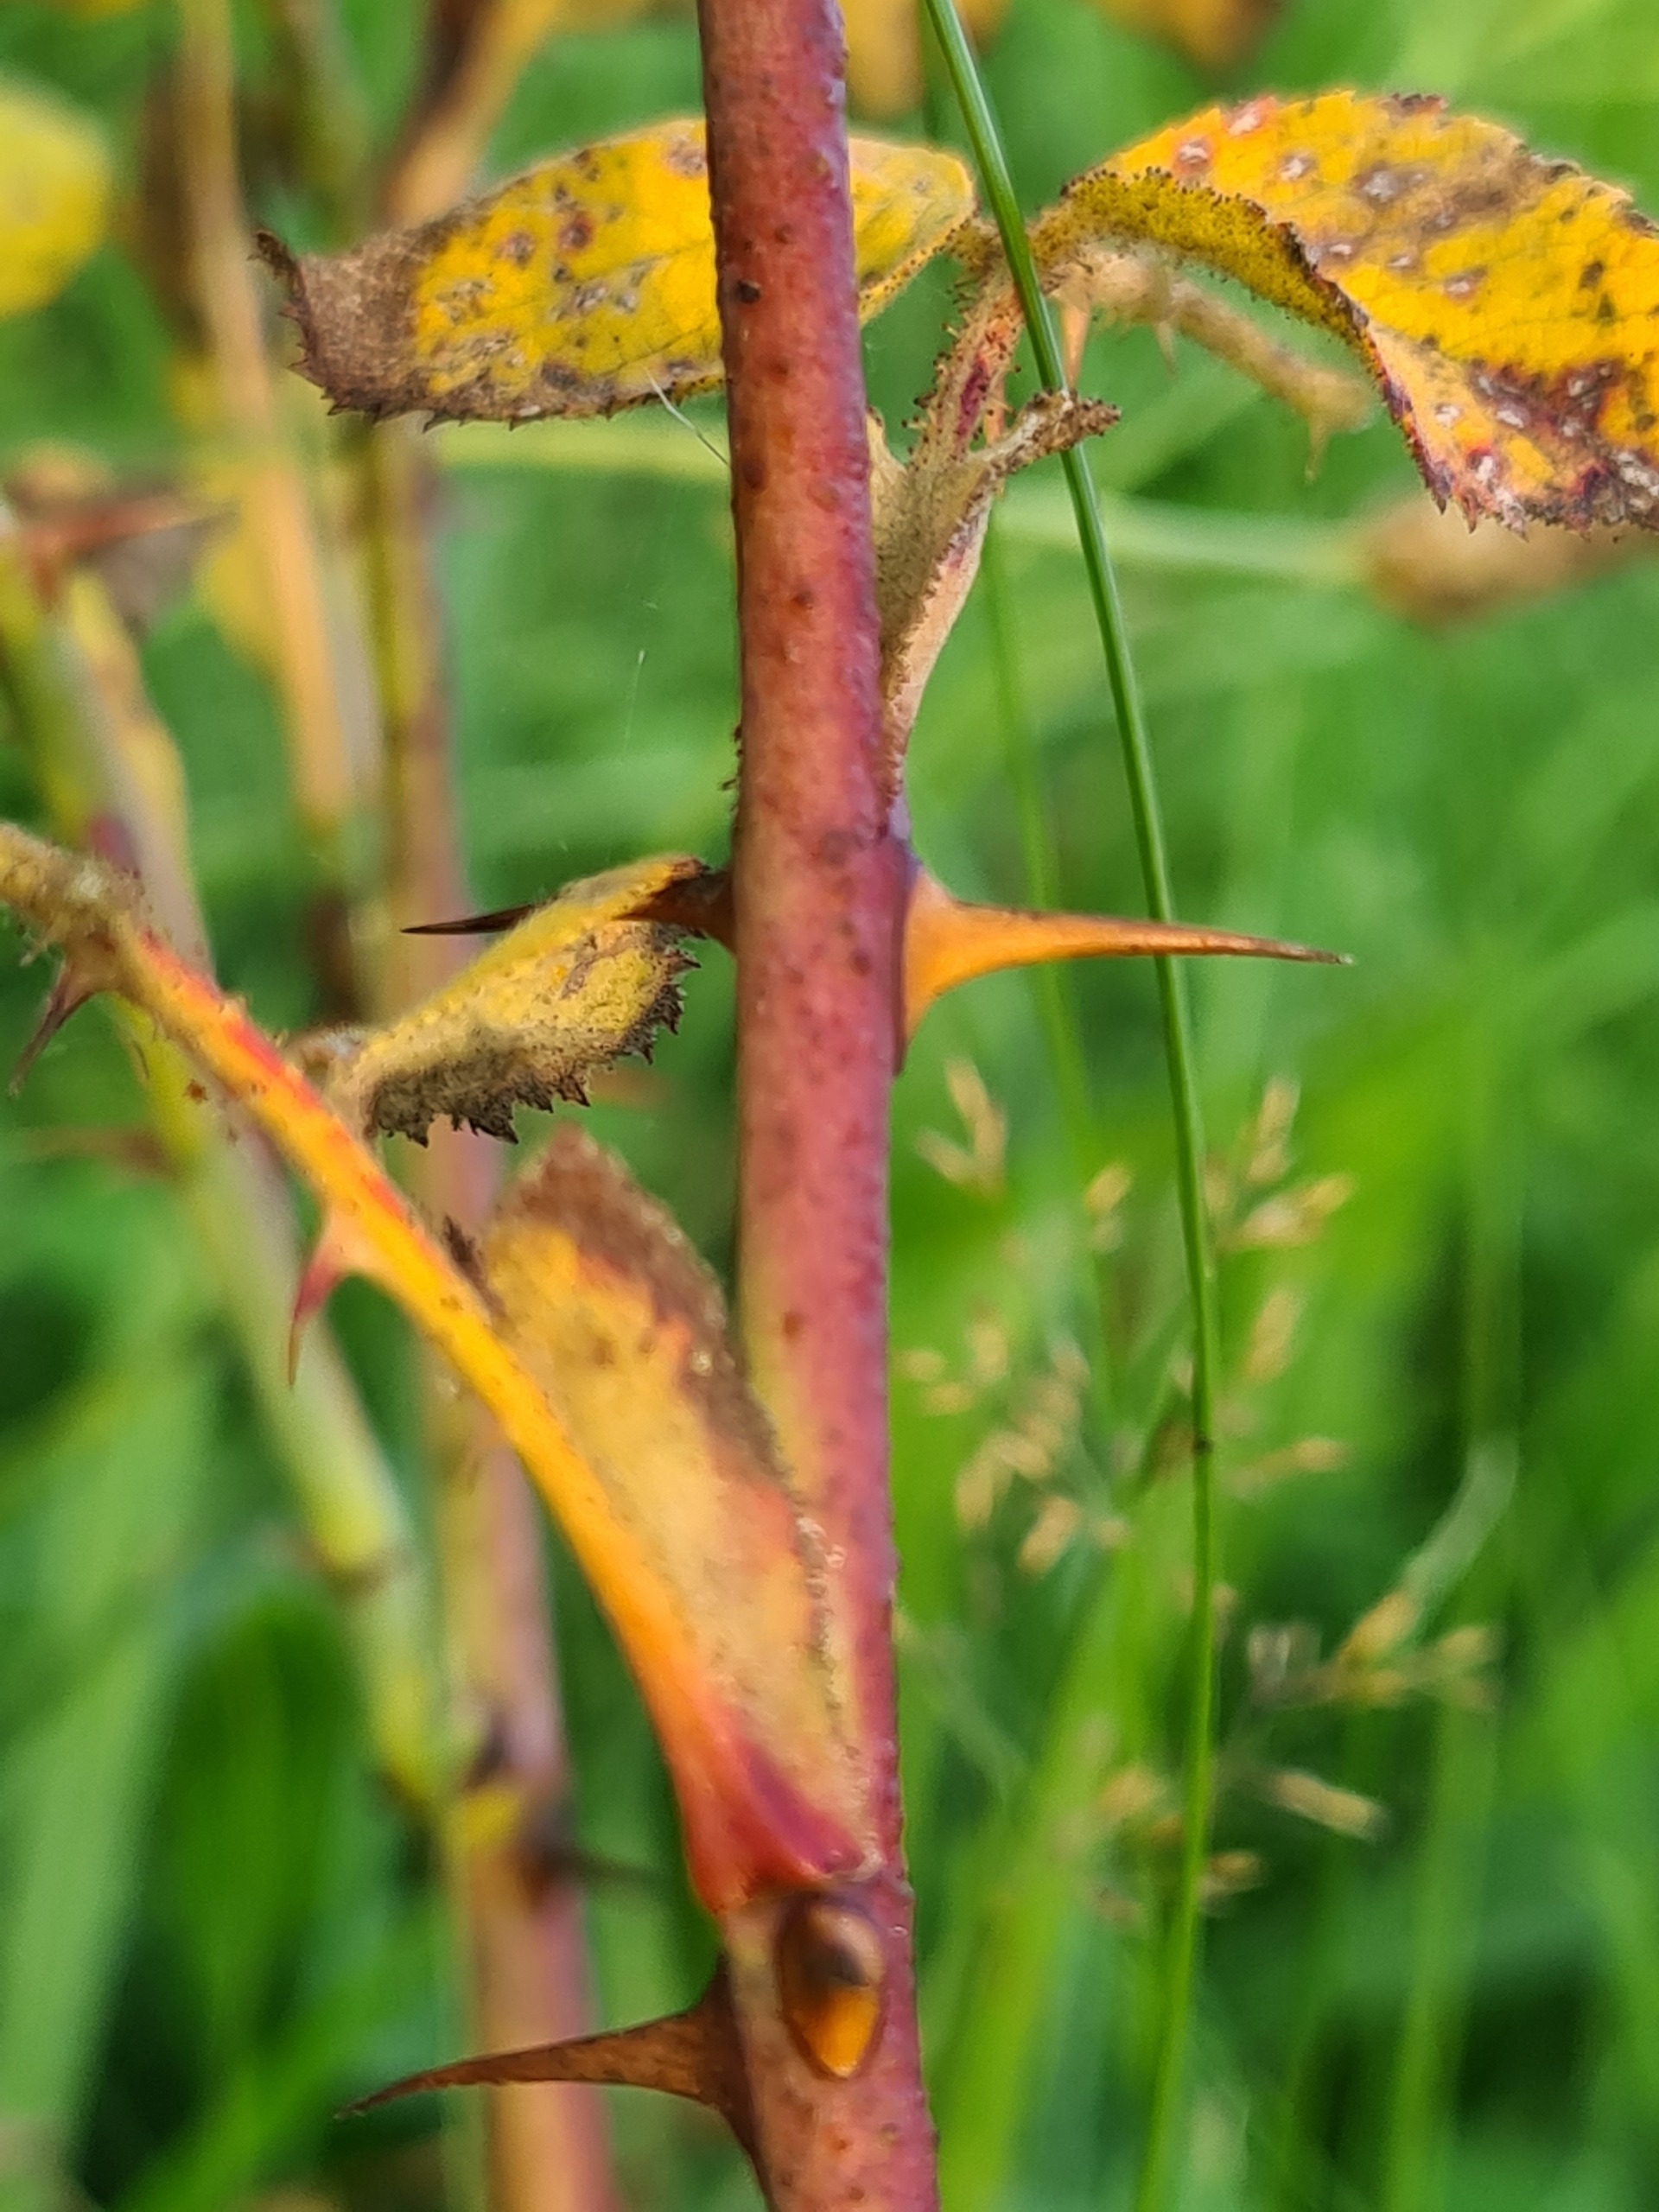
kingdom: Plantae
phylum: Tracheophyta
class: Magnoliopsida
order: Rosales
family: Rosaceae
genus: Rosa
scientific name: Rosa mollis
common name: Blød filt-rose
